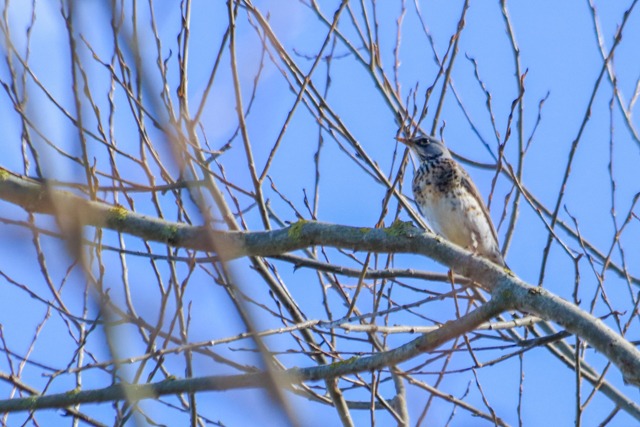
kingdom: Animalia
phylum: Chordata
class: Aves
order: Passeriformes
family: Turdidae
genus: Turdus
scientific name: Turdus pilaris
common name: Sjagger
